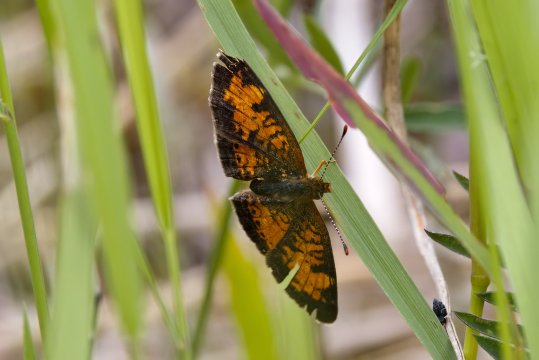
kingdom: Animalia
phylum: Arthropoda
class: Insecta
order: Lepidoptera
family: Nymphalidae
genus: Phyciodes
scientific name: Phyciodes tharos
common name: Northern Crescent
